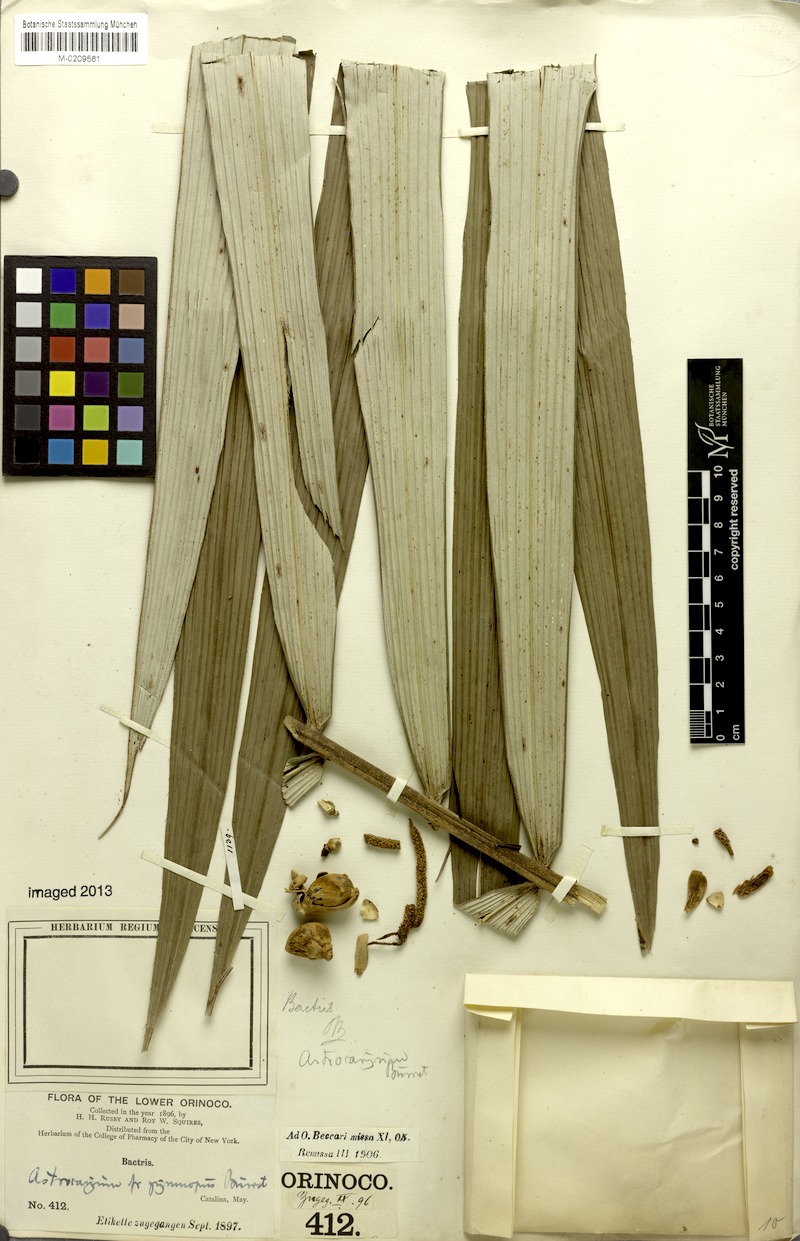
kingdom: Plantae
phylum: Tracheophyta
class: Liliopsida
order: Arecales
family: Arecaceae
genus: Astrocaryum
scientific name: Astrocaryum aculeatum
